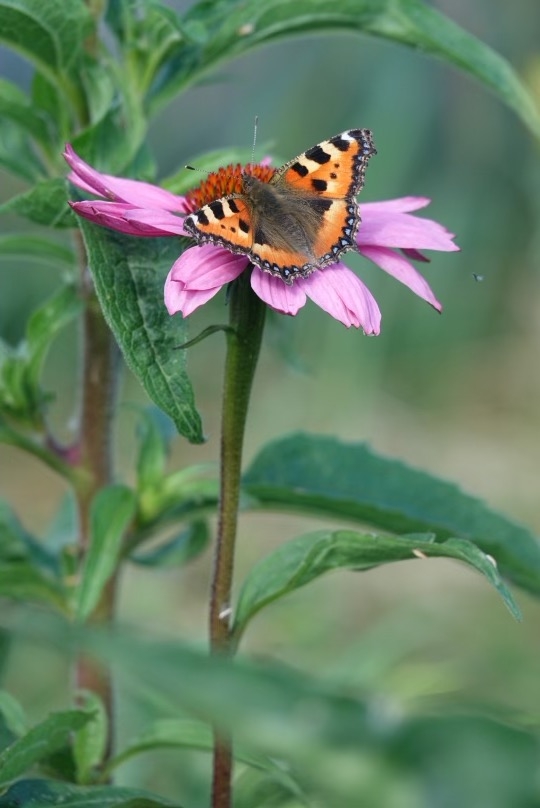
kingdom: Animalia
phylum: Arthropoda
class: Insecta
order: Lepidoptera
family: Nymphalidae
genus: Aglais
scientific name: Aglais urticae
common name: Nældens takvinge
